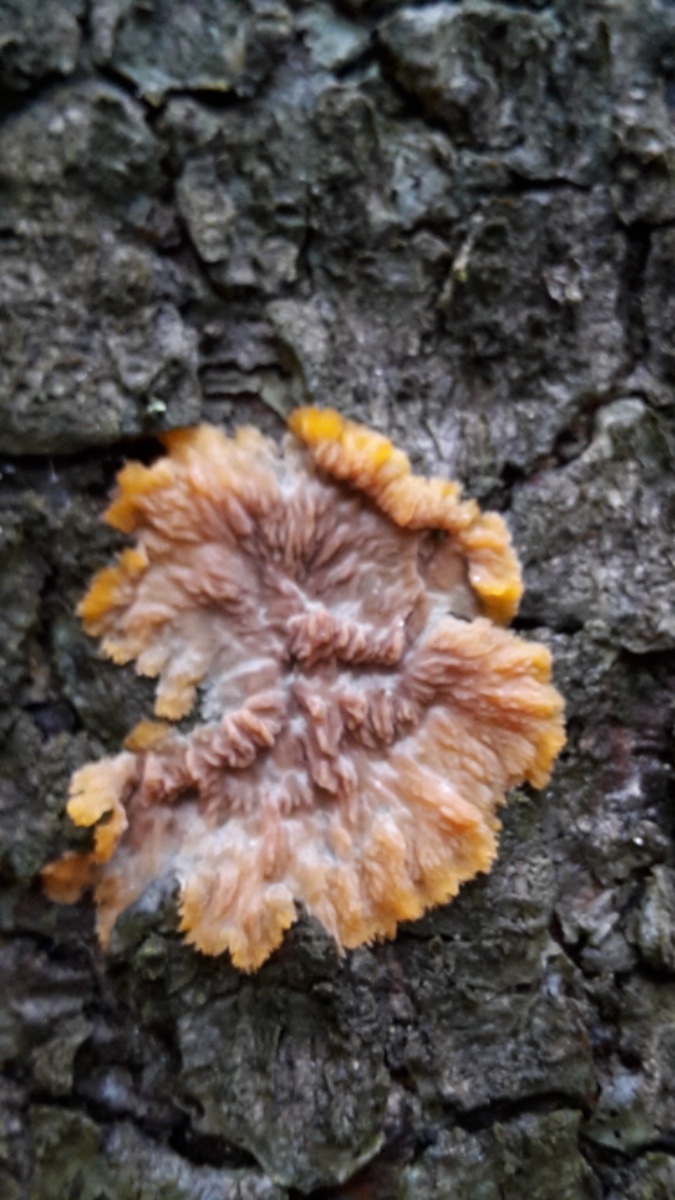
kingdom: Fungi
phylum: Basidiomycota
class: Agaricomycetes
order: Polyporales
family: Meruliaceae
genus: Phlebia
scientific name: Phlebia radiata
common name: stråle-åresvamp
